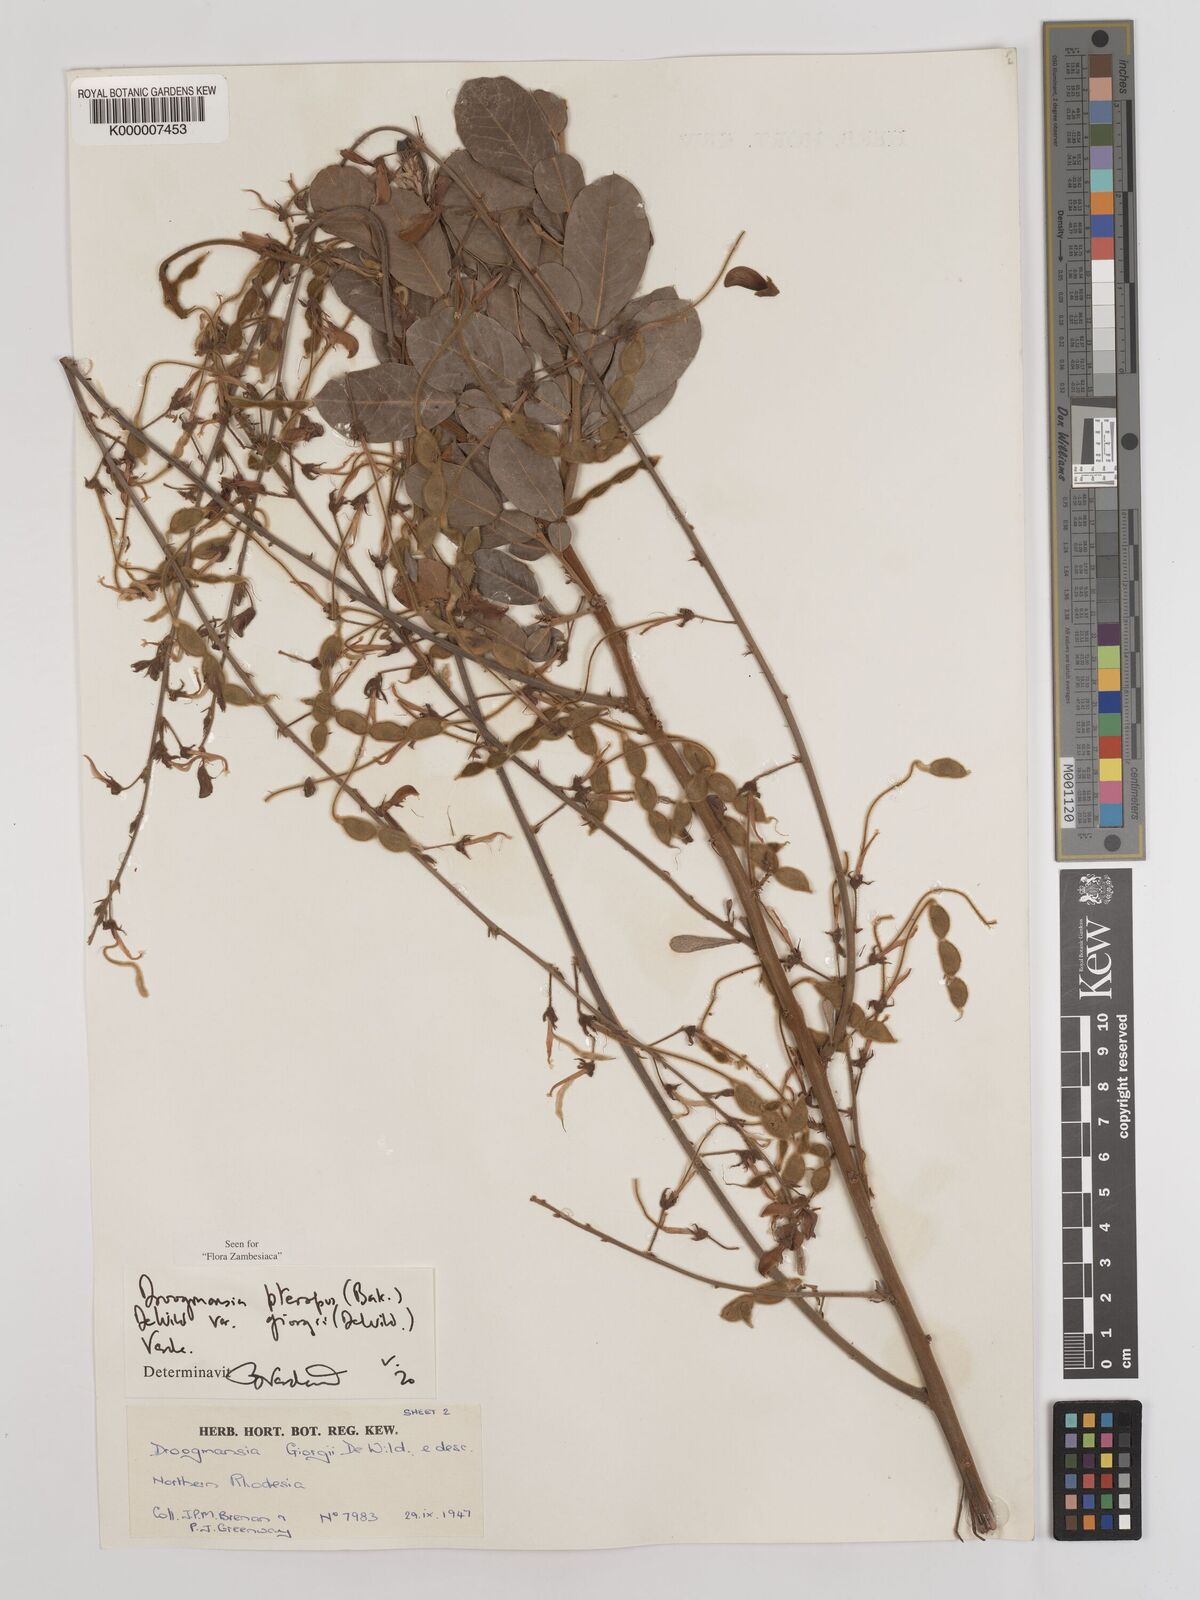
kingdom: Plantae
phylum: Tracheophyta
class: Magnoliopsida
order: Fabales
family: Fabaceae
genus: Droogmansia
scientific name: Droogmansia pteropus
